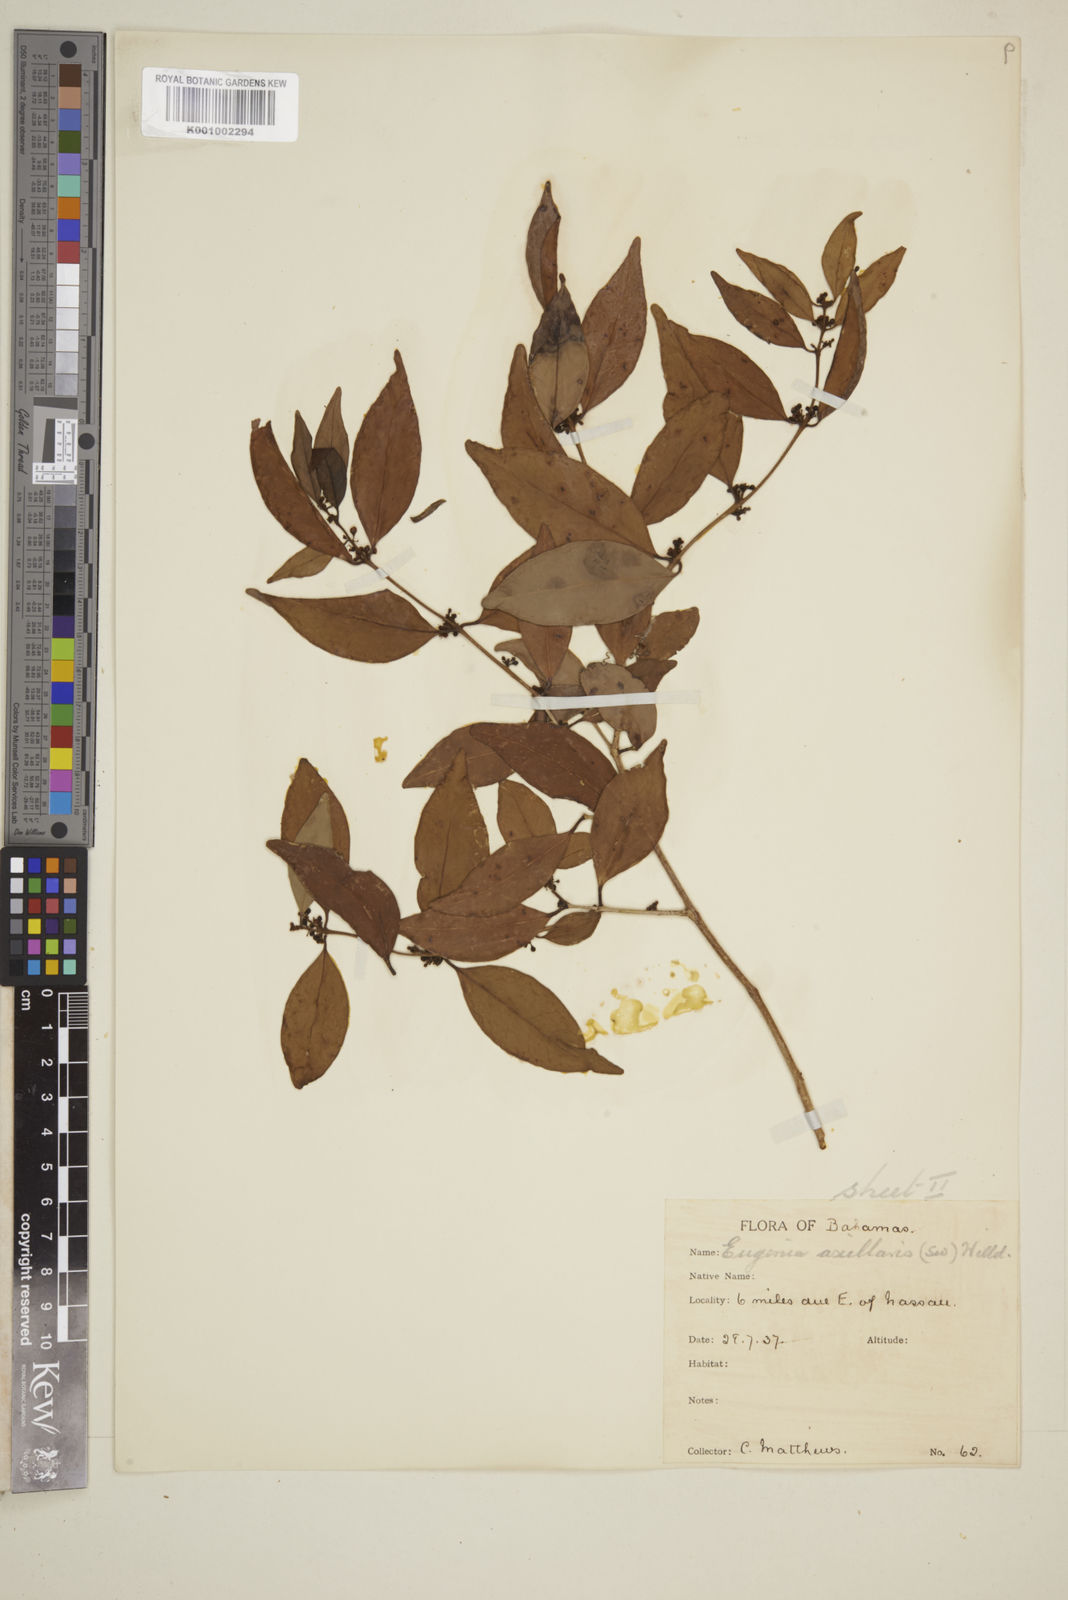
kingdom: Plantae
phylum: Tracheophyta
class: Magnoliopsida
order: Myrtales
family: Myrtaceae
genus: Eugenia
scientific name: Eugenia axillaris
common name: Choaky berry
